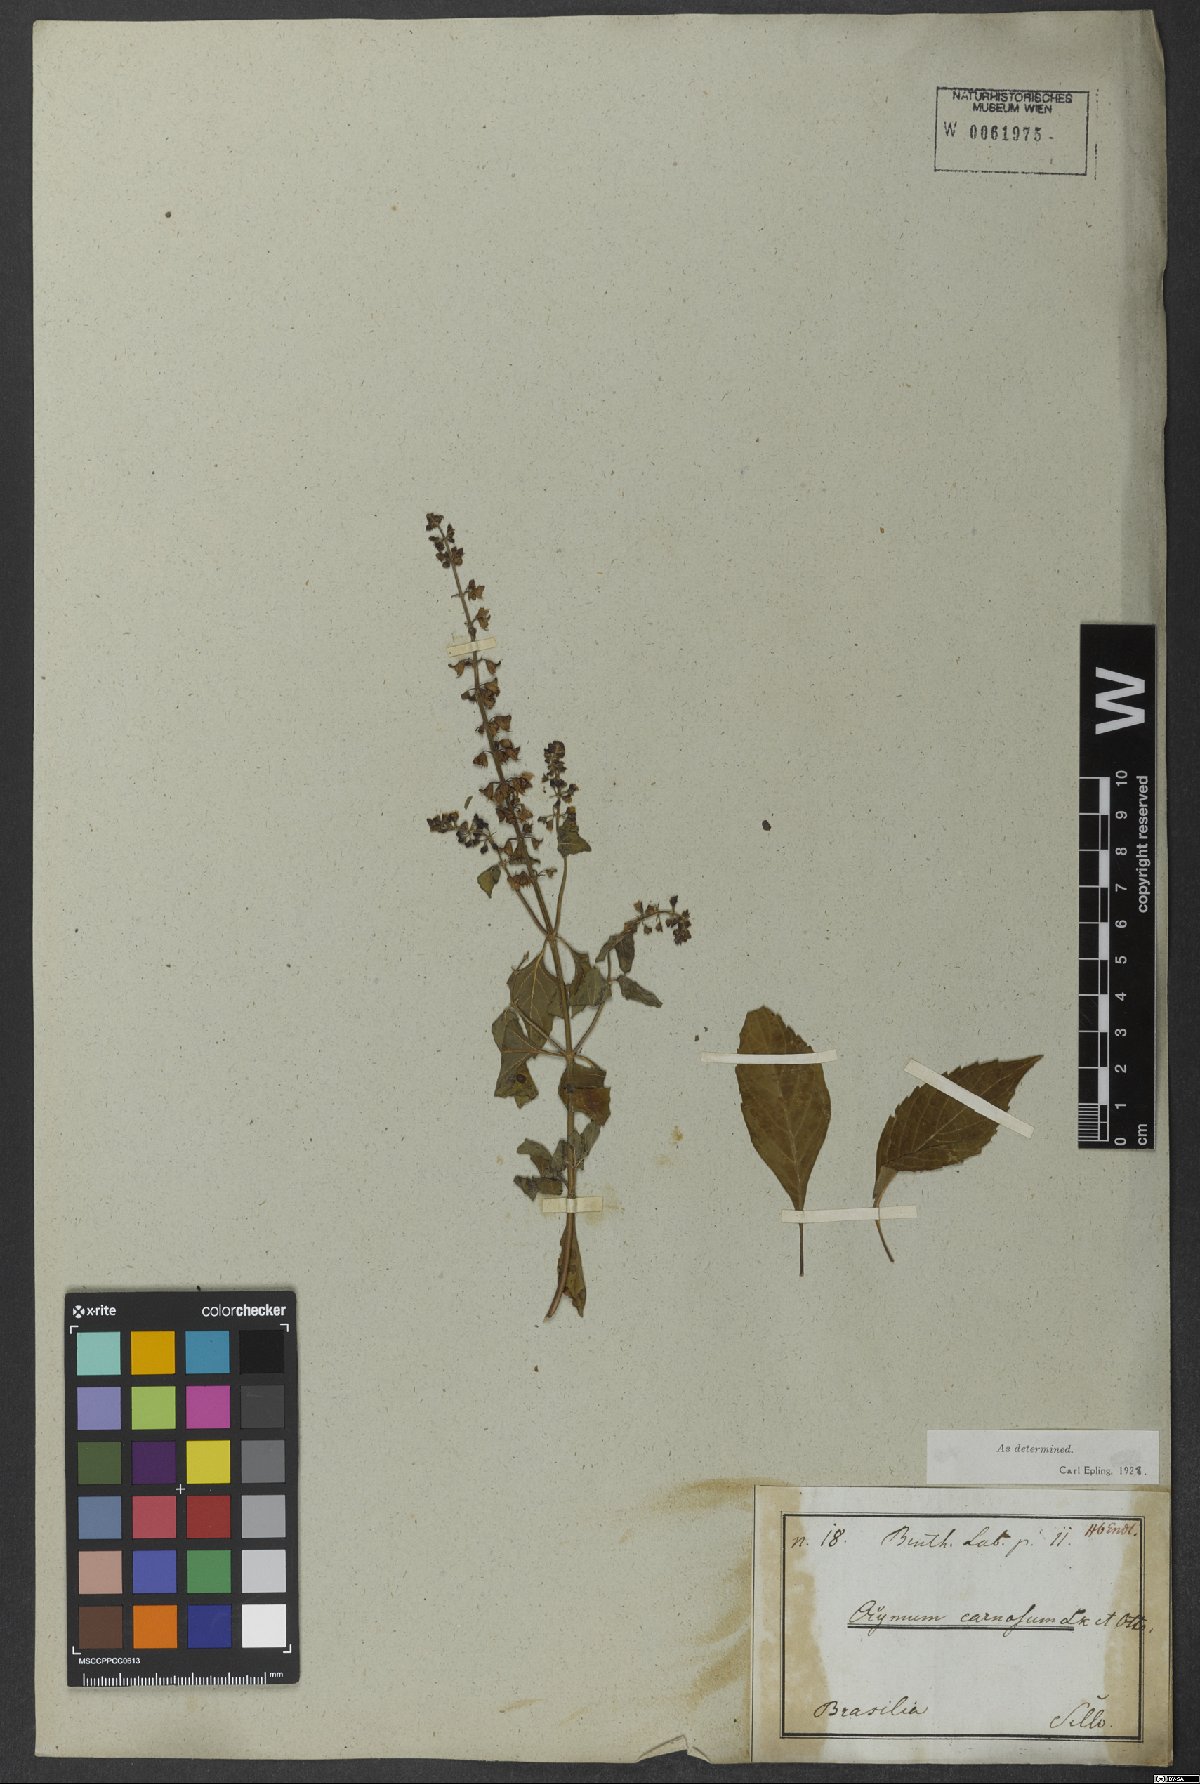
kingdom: Plantae
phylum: Tracheophyta
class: Magnoliopsida
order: Lamiales
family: Lamiaceae
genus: Ocimum
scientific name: Ocimum carnosum
